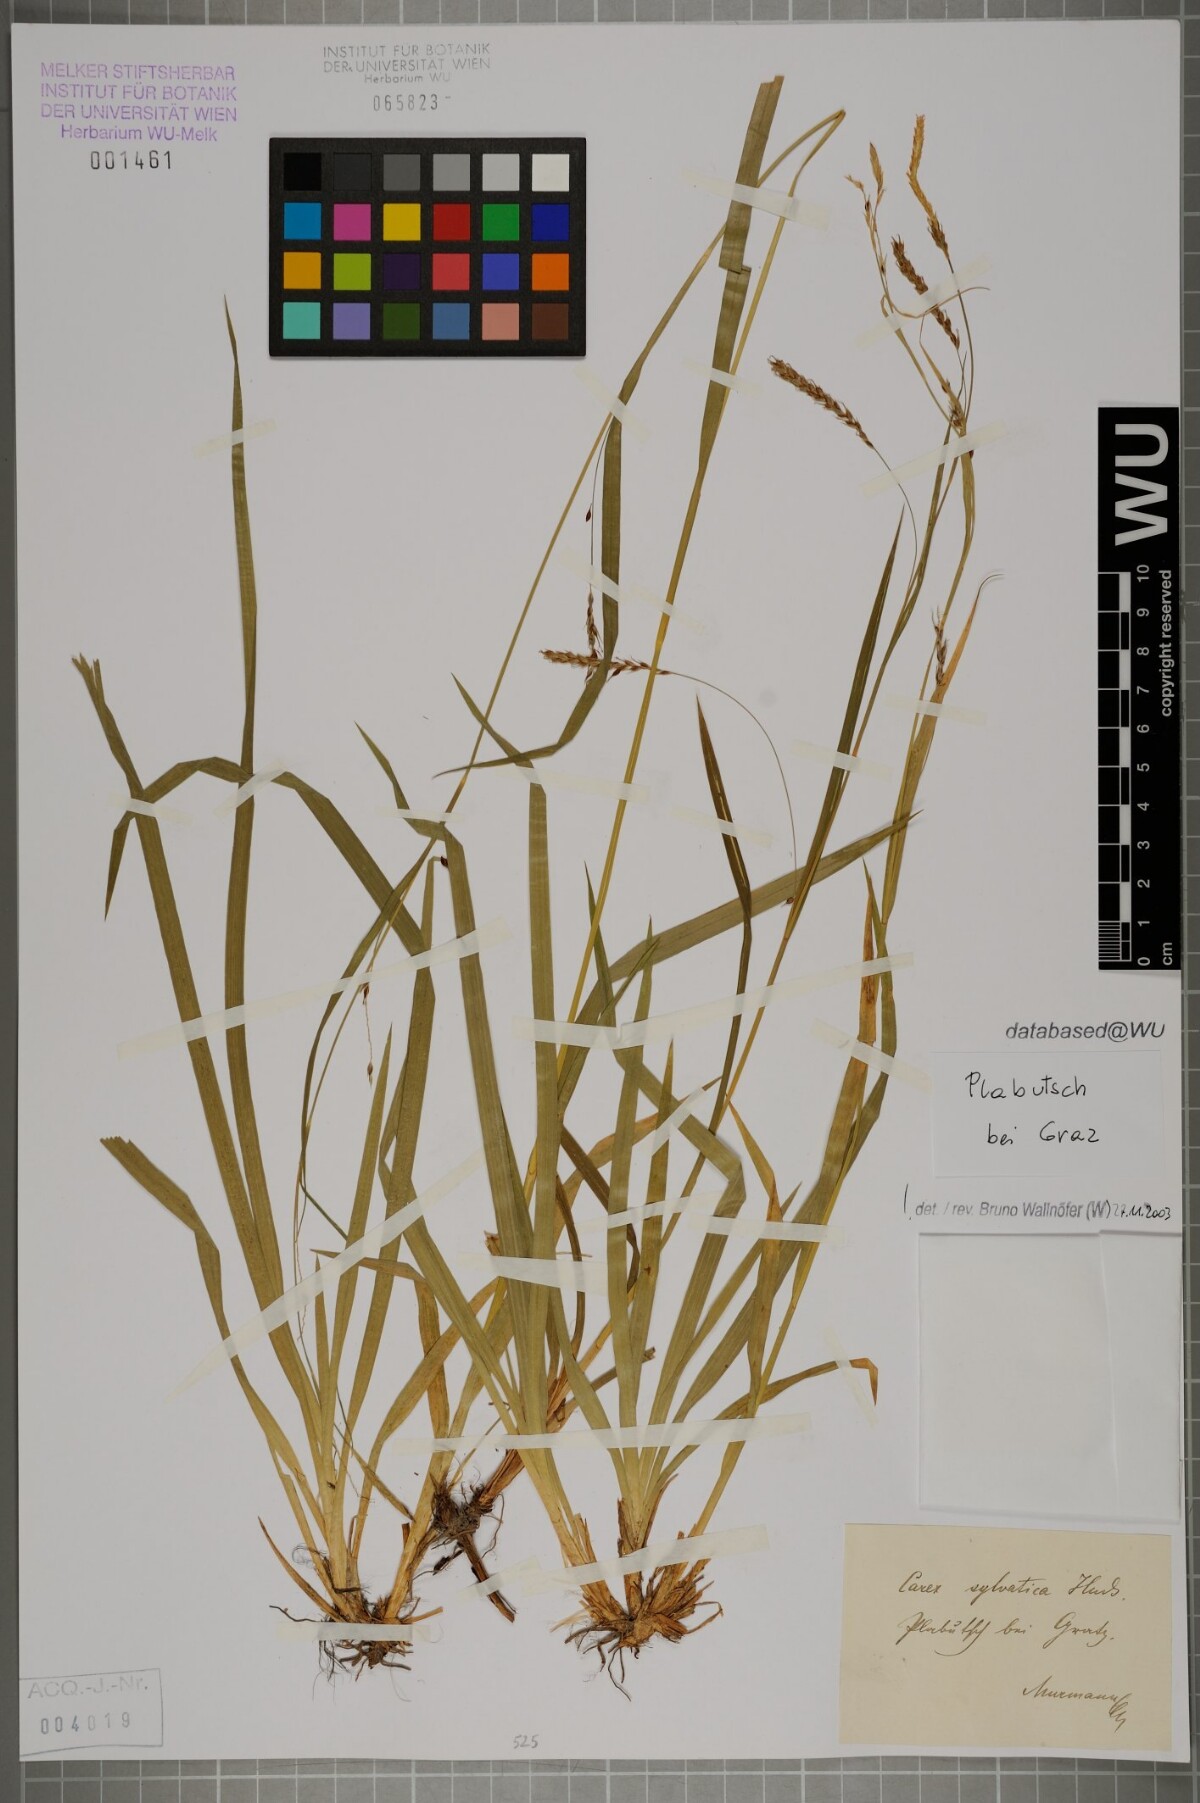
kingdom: Plantae
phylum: Tracheophyta
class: Liliopsida
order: Poales
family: Cyperaceae
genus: Carex
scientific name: Carex sylvatica
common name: Wood-sedge
